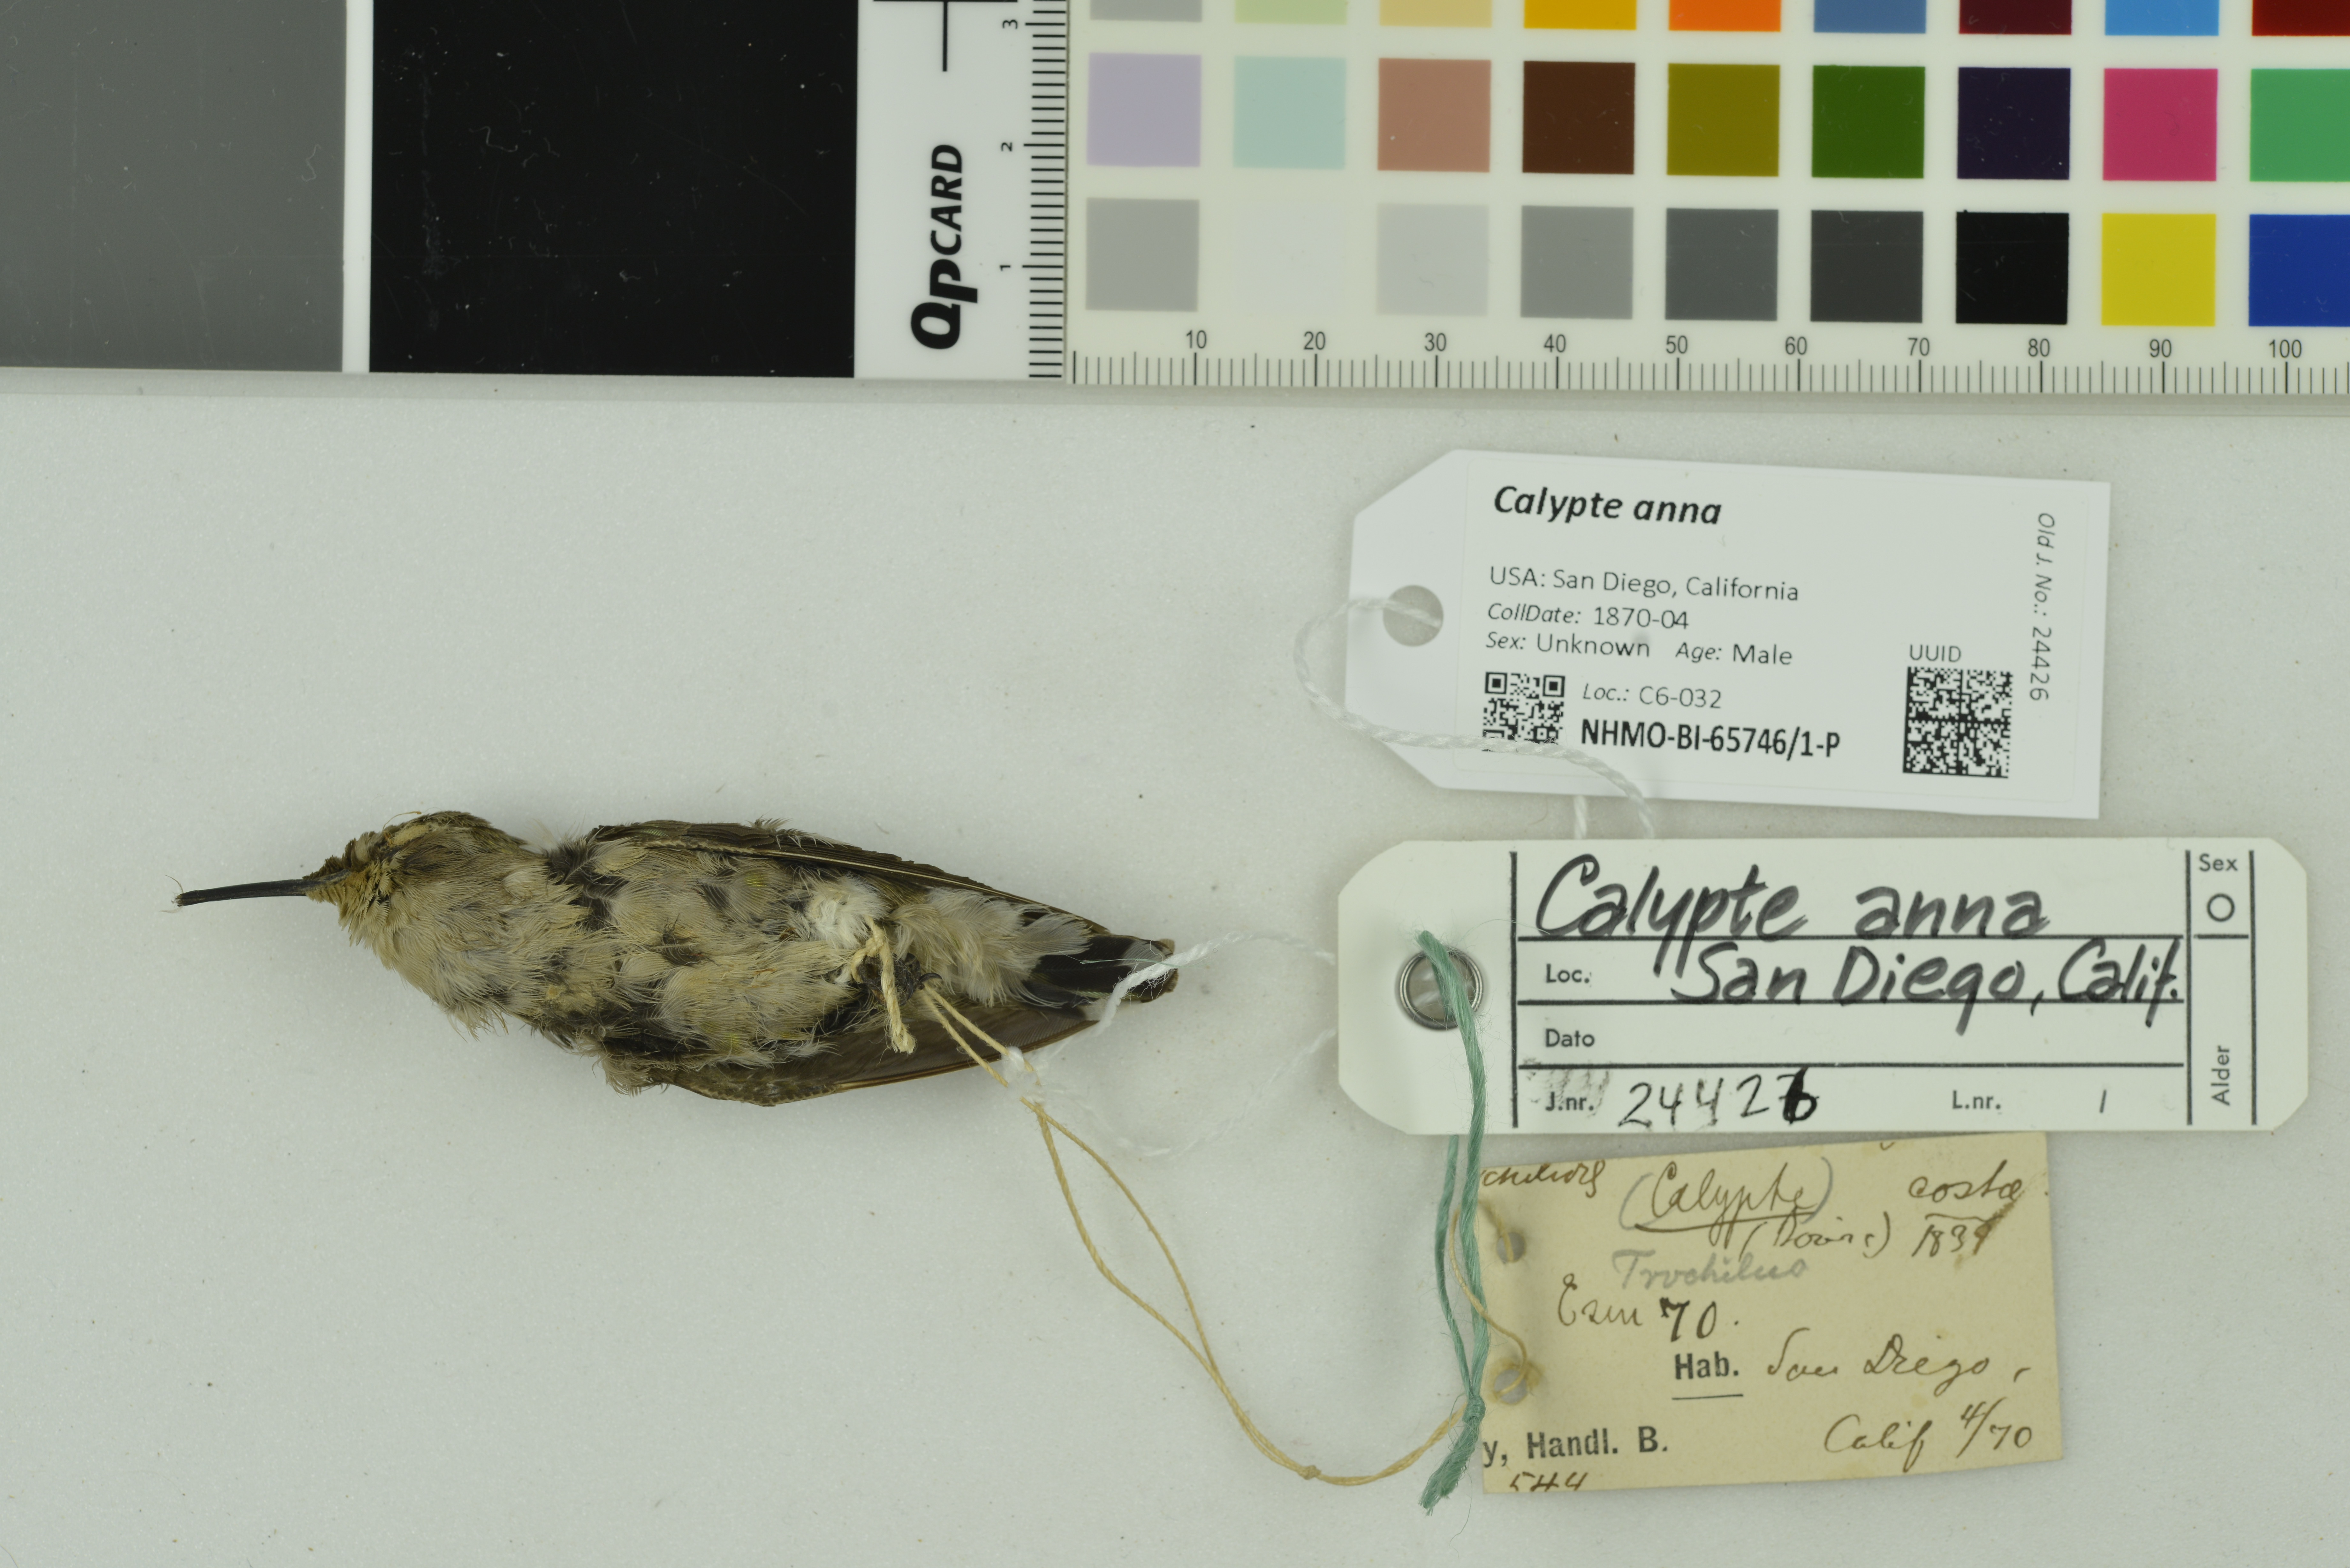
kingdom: Animalia
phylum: Chordata
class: Aves
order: Apodiformes
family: Trochilidae
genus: Calypte
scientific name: Calypte anna
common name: Anna's hummingbird
